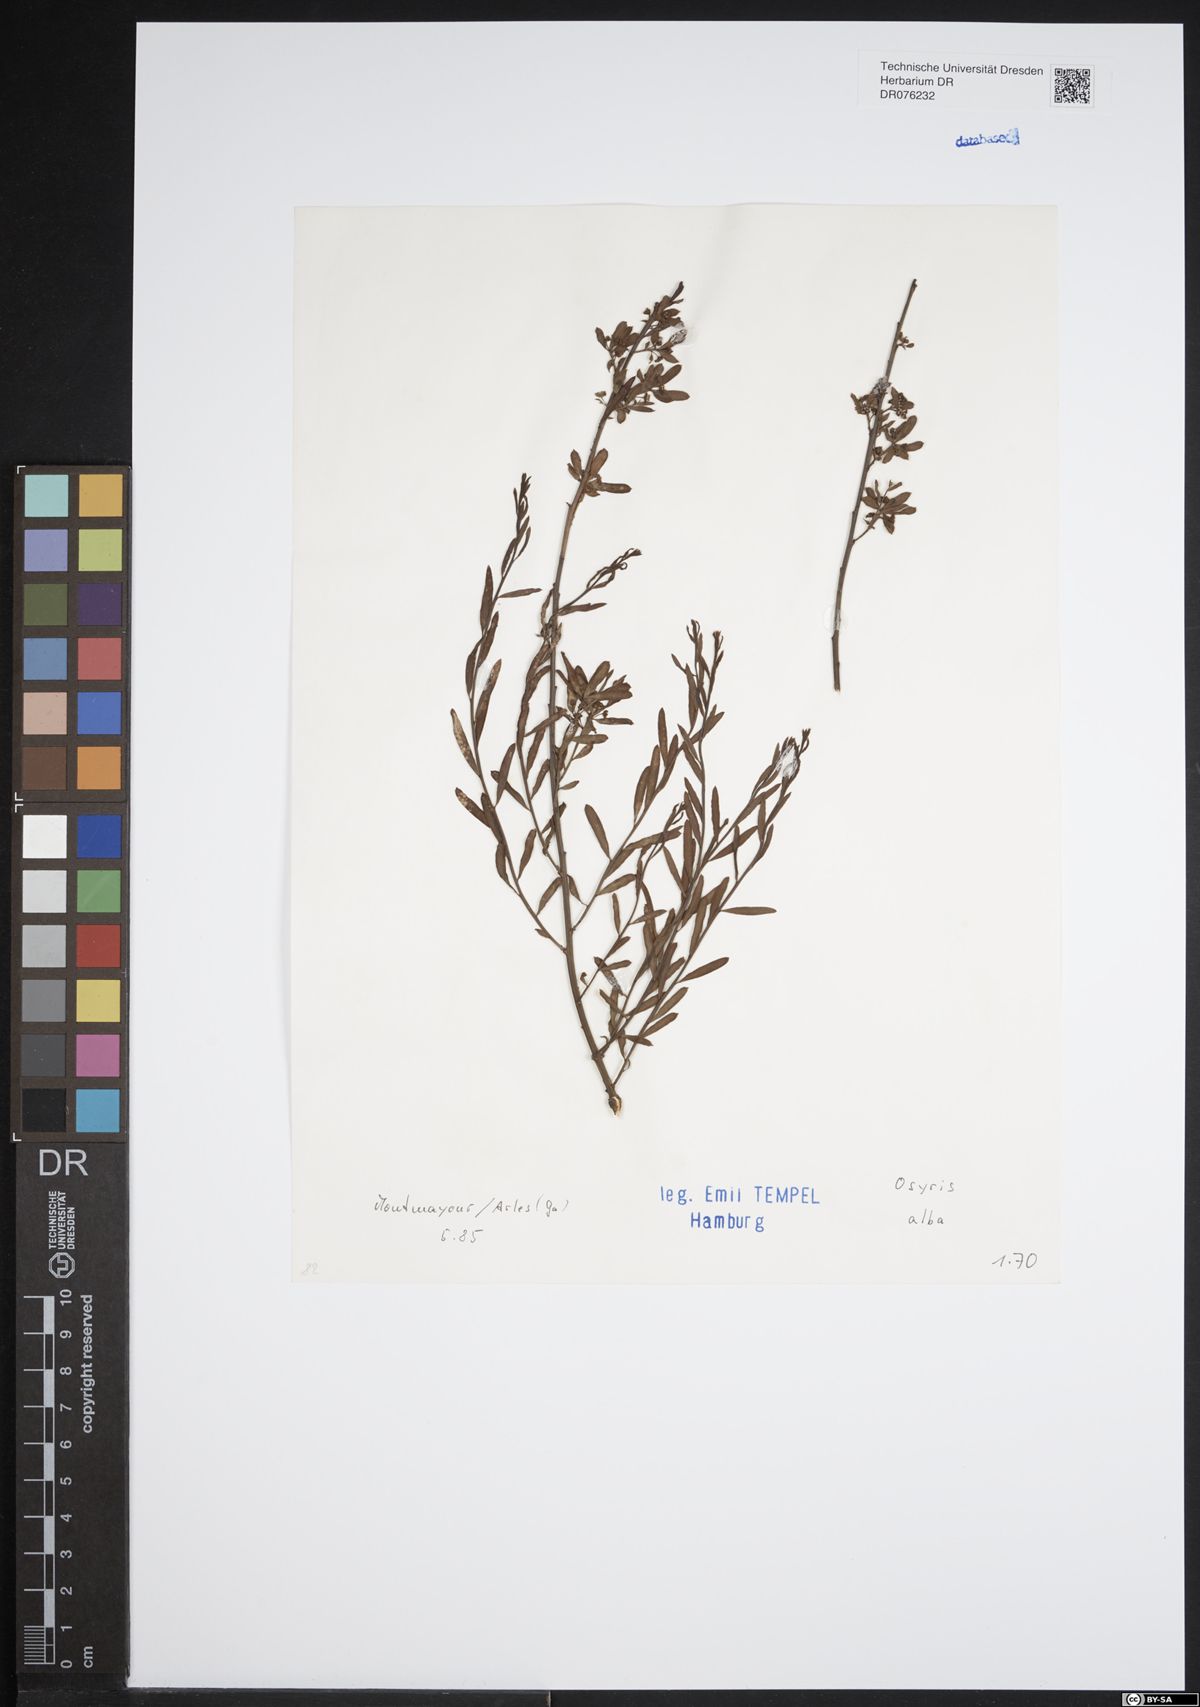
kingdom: Plantae
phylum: Tracheophyta
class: Magnoliopsida
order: Santalales
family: Santalaceae
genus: Osyris
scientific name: Osyris alba
